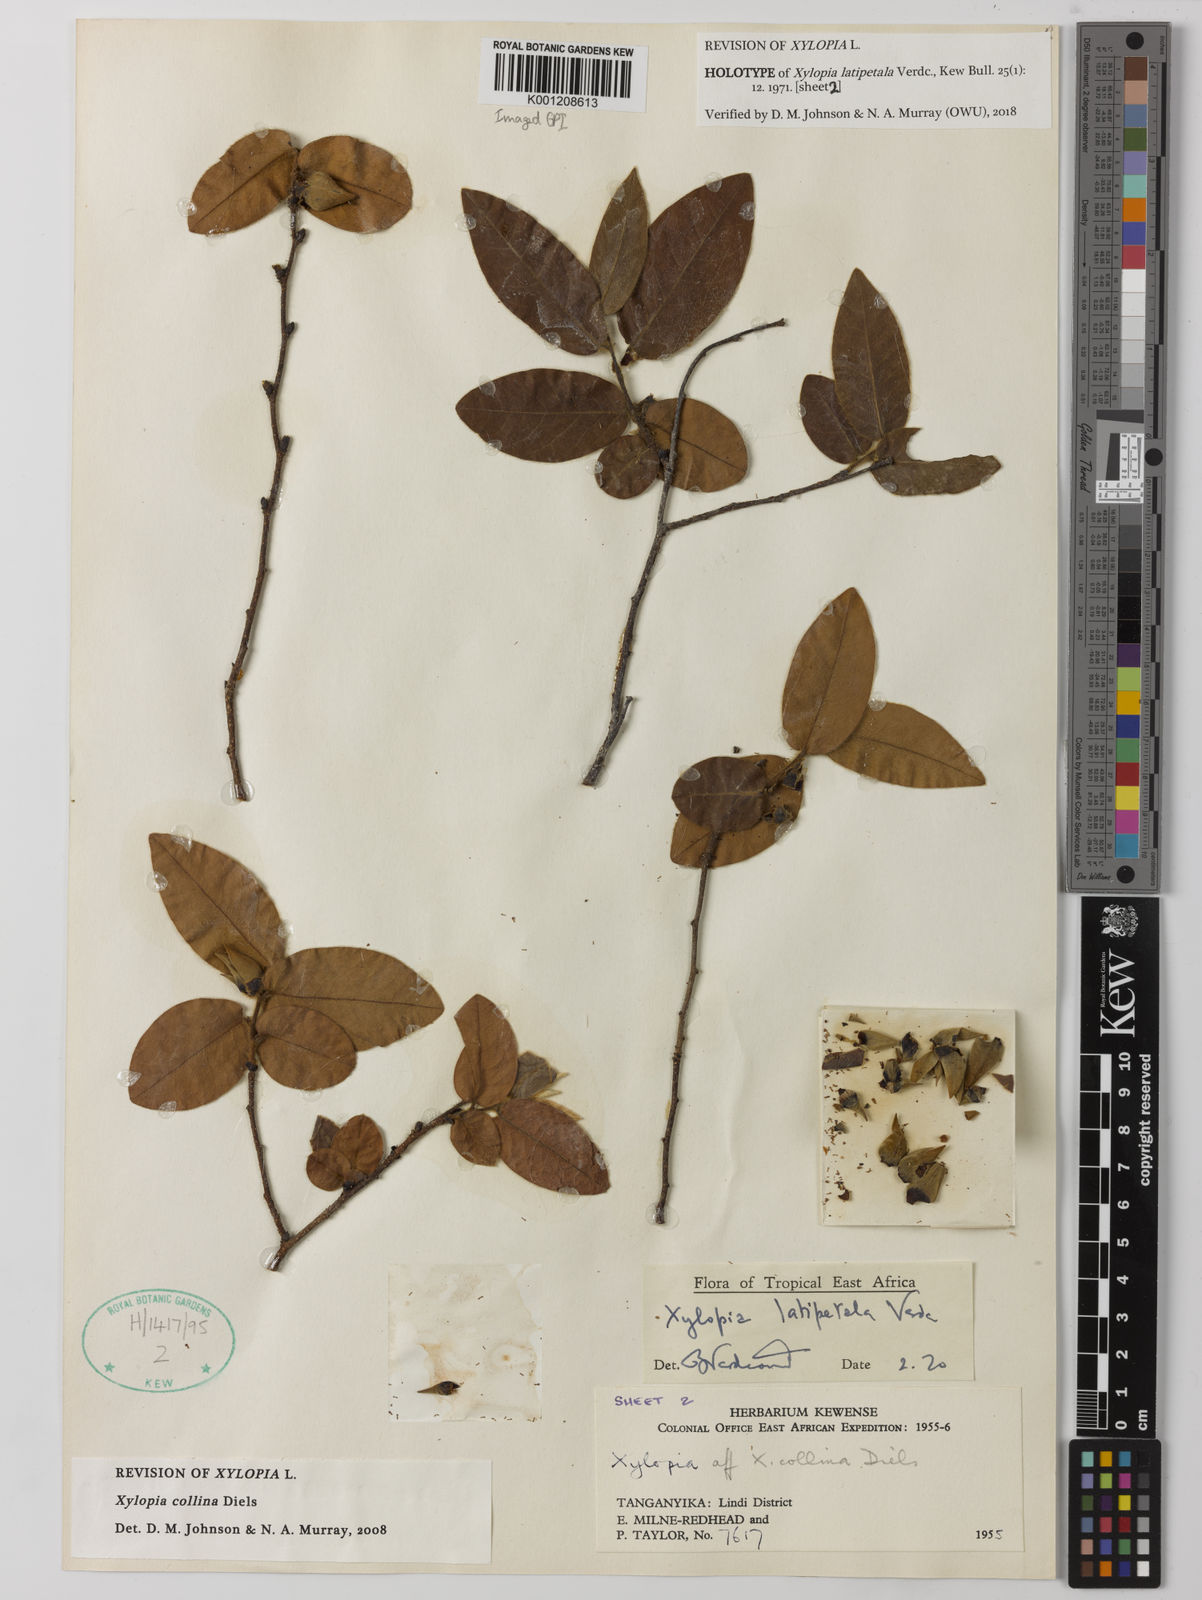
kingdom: Plantae
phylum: Tracheophyta
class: Magnoliopsida
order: Magnoliales
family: Annonaceae
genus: Xylopia
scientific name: Xylopia collina
